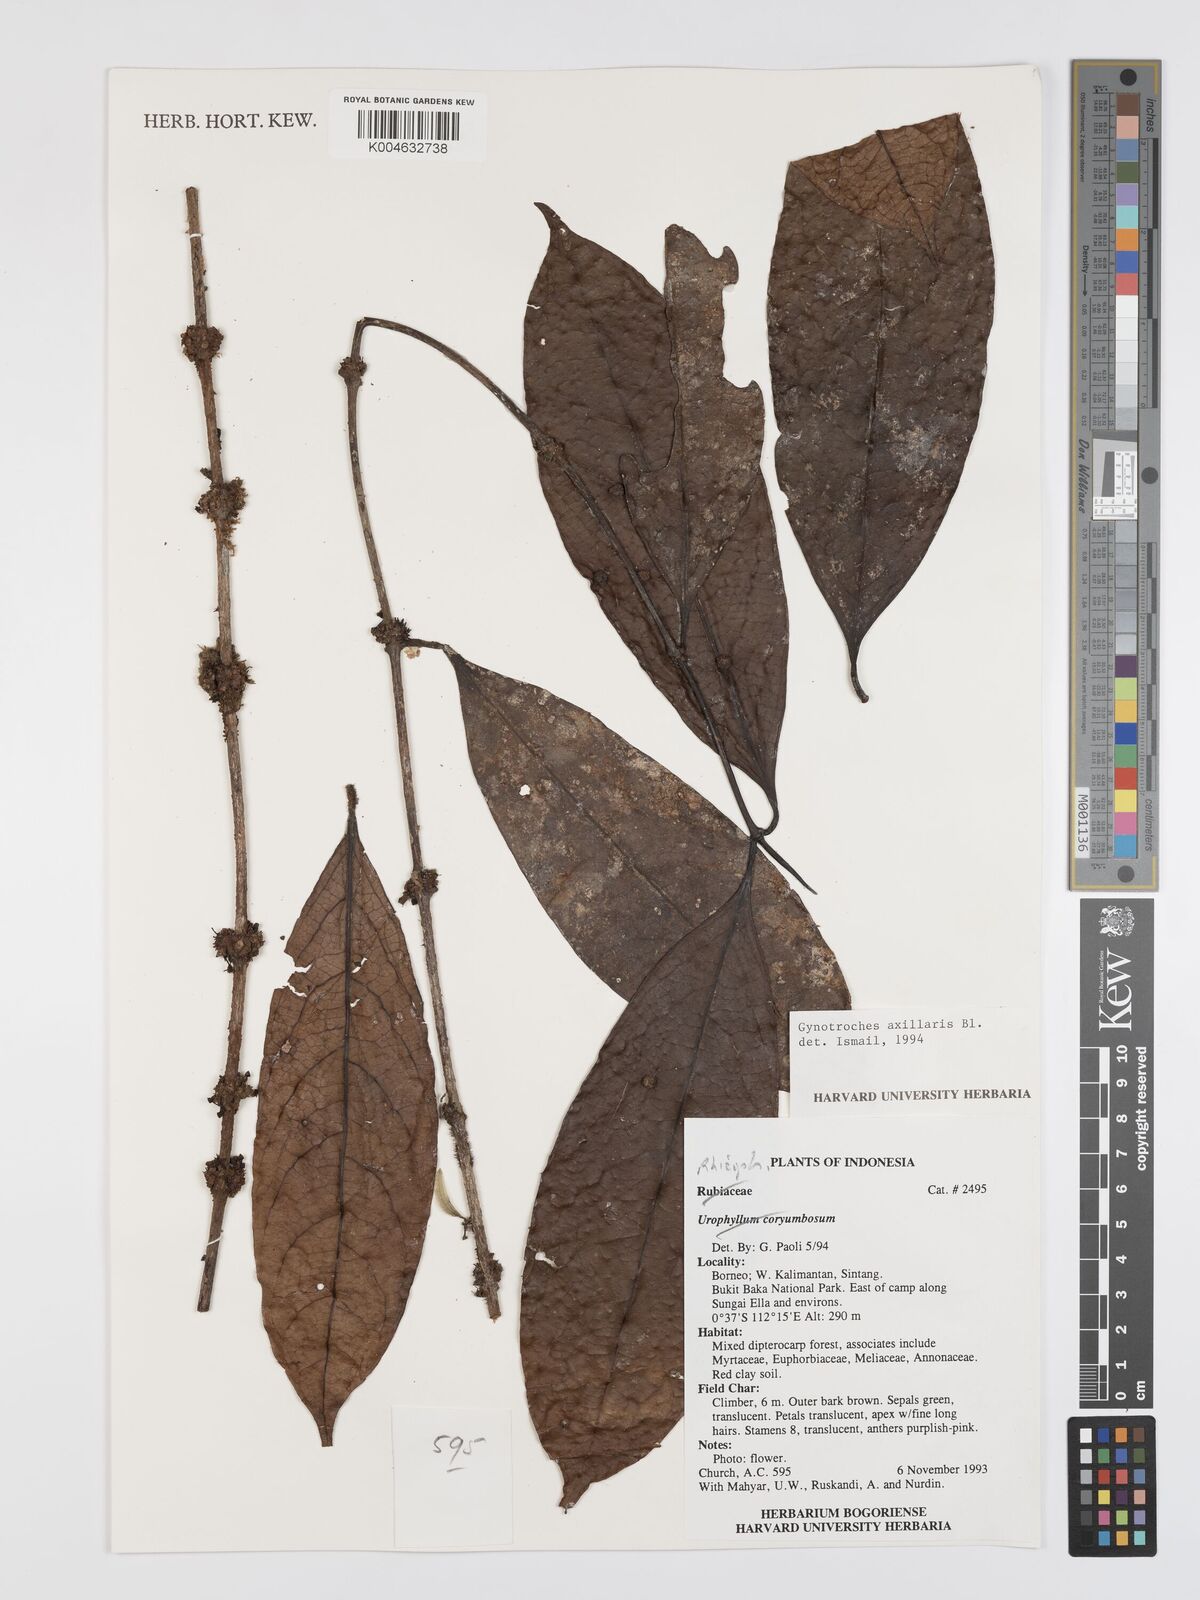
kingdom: Plantae
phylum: Tracheophyta
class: Magnoliopsida
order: Malpighiales
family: Rhizophoraceae
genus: Gynotroches
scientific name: Gynotroches axillaris
